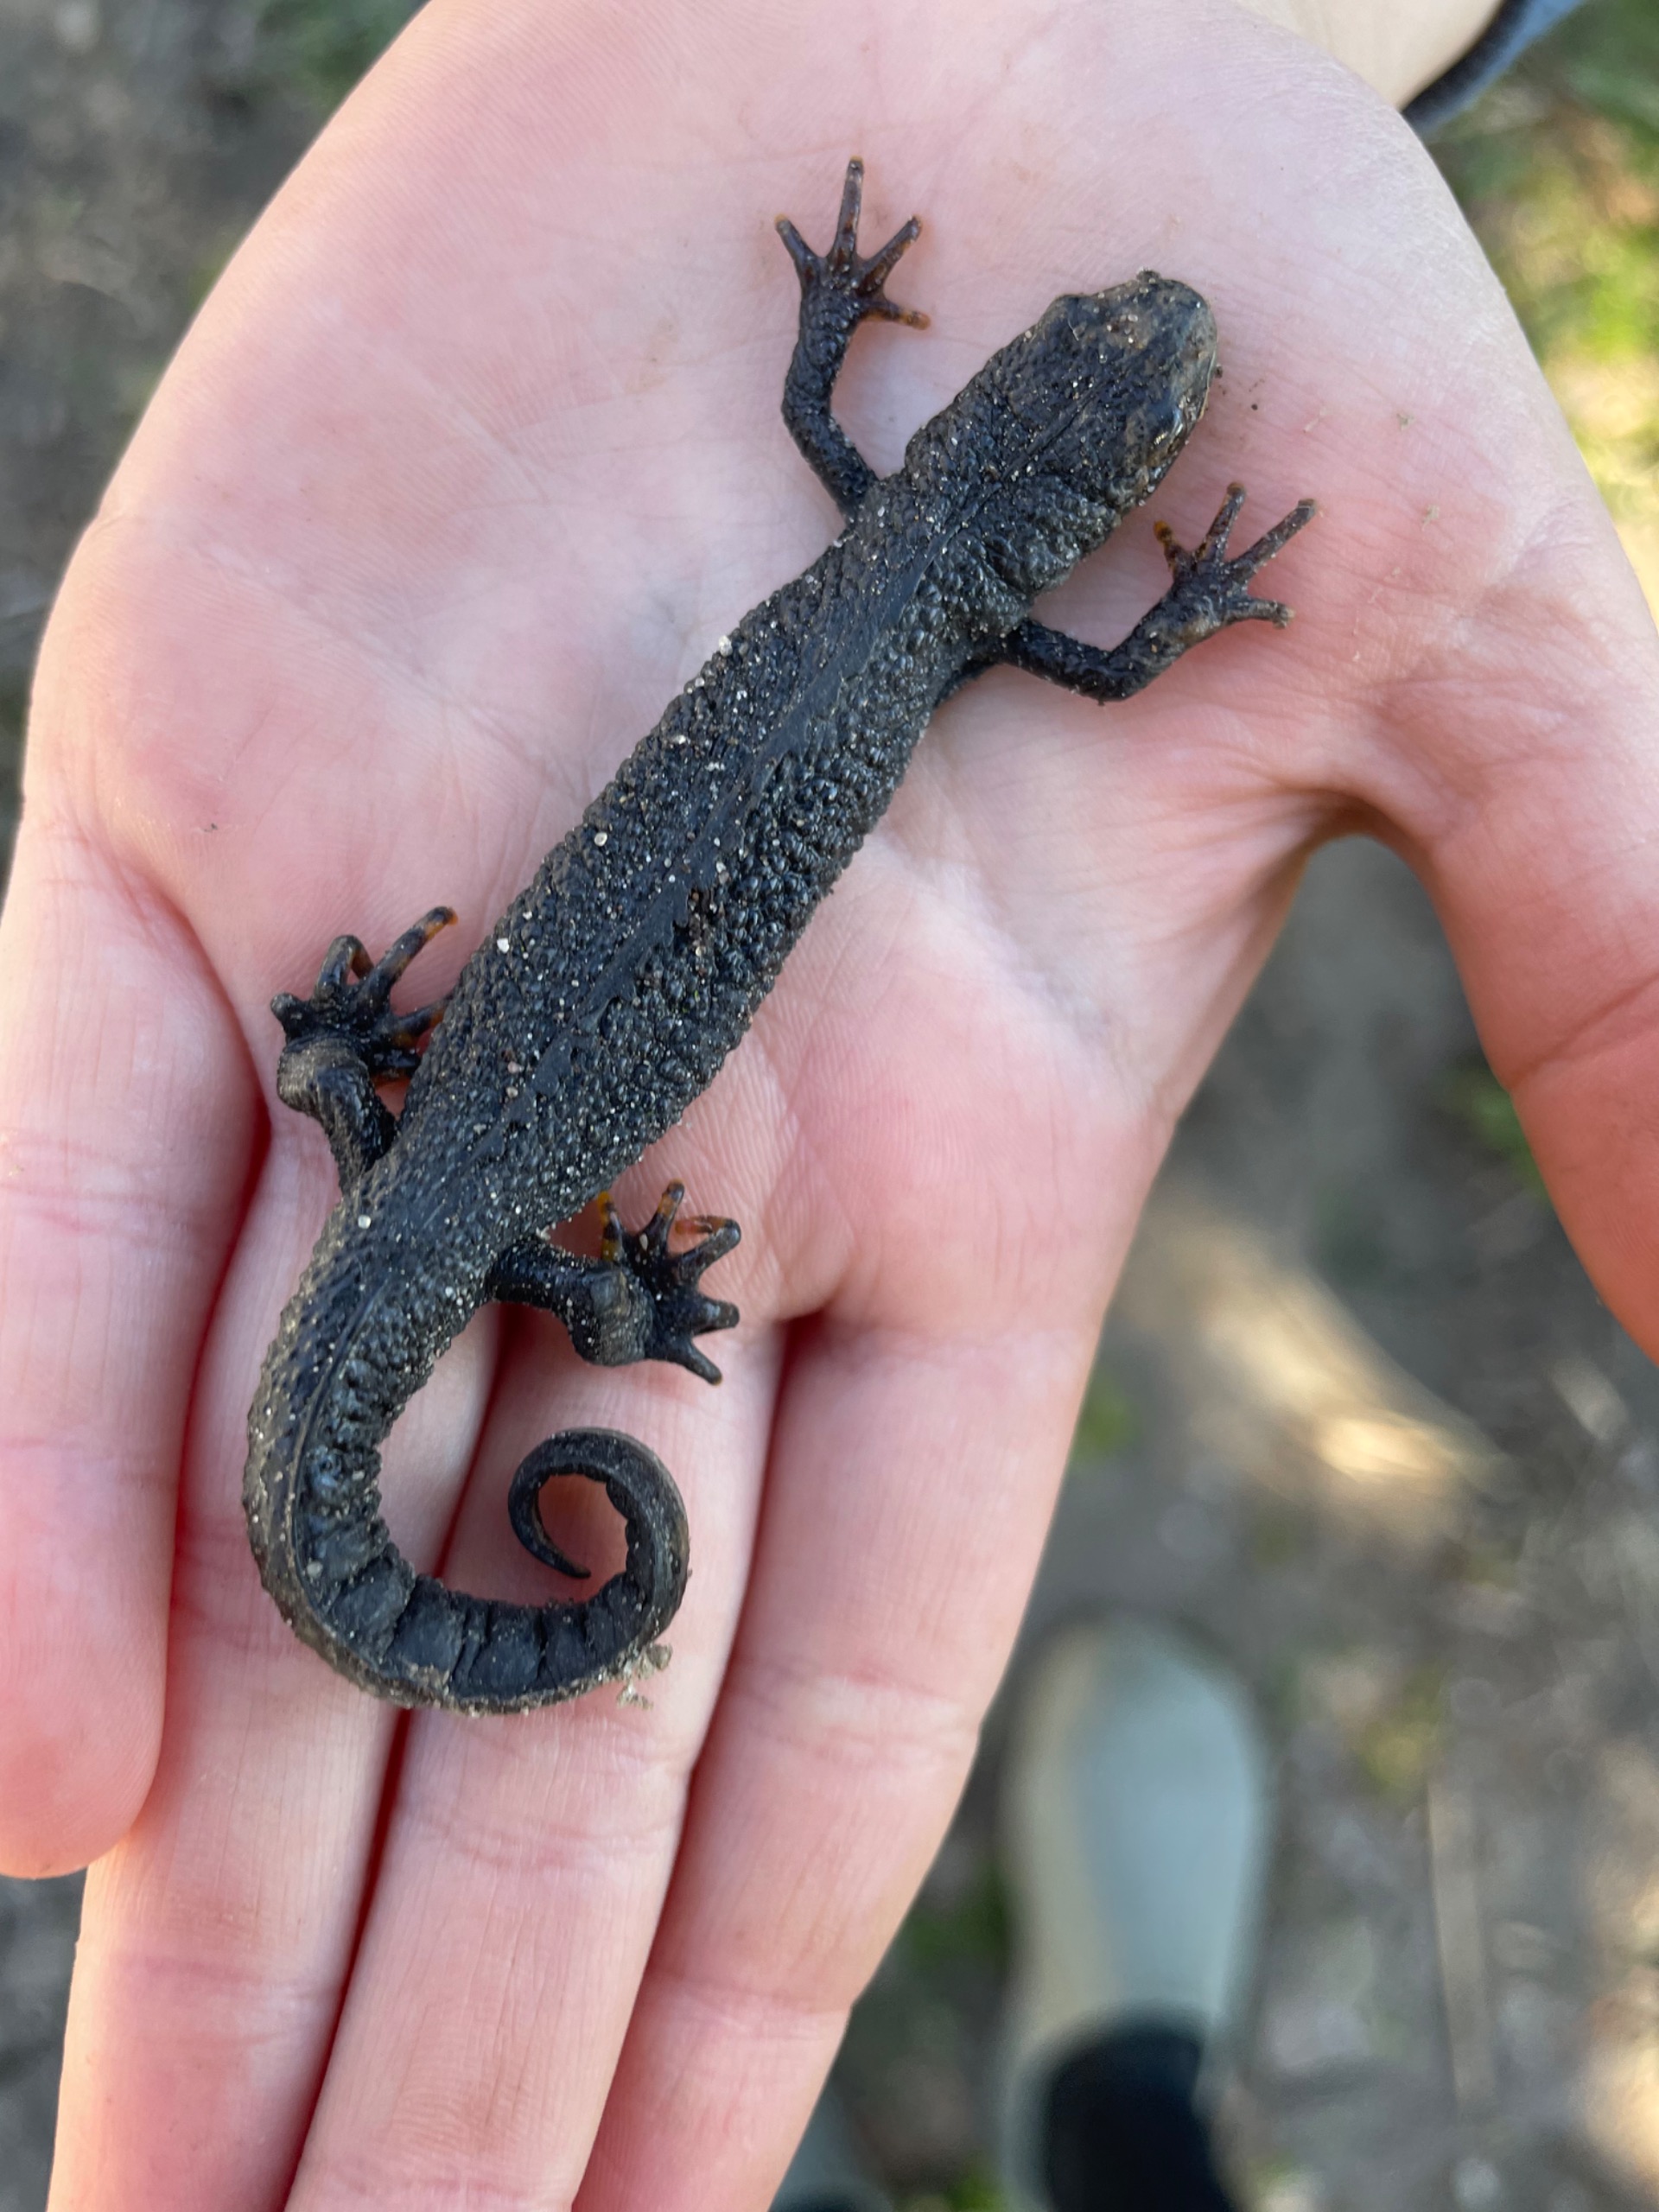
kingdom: Animalia
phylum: Chordata
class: Amphibia
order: Caudata
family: Salamandridae
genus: Triturus
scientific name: Triturus cristatus
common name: Stor vandsalamander
